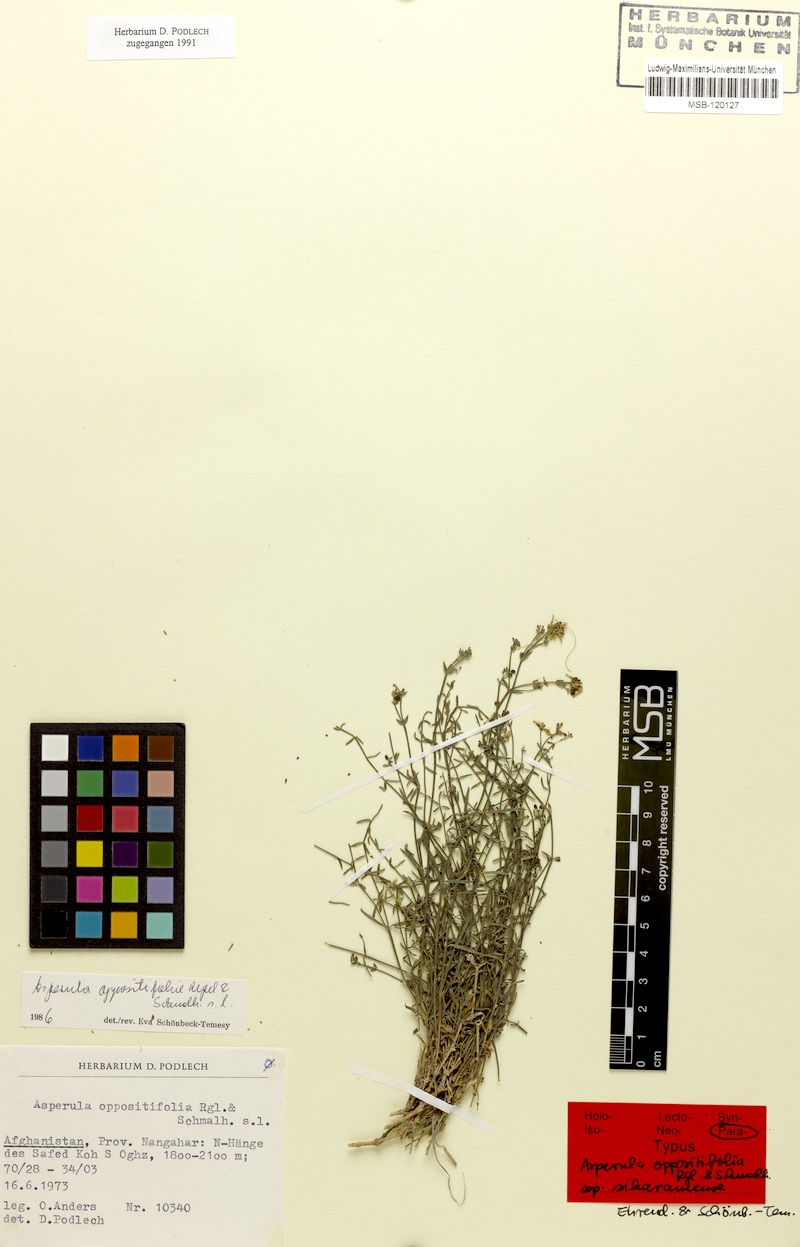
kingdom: Plantae
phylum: Tracheophyta
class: Magnoliopsida
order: Gentianales
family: Rubiaceae
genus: Asperula
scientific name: Asperula oppositifolia
